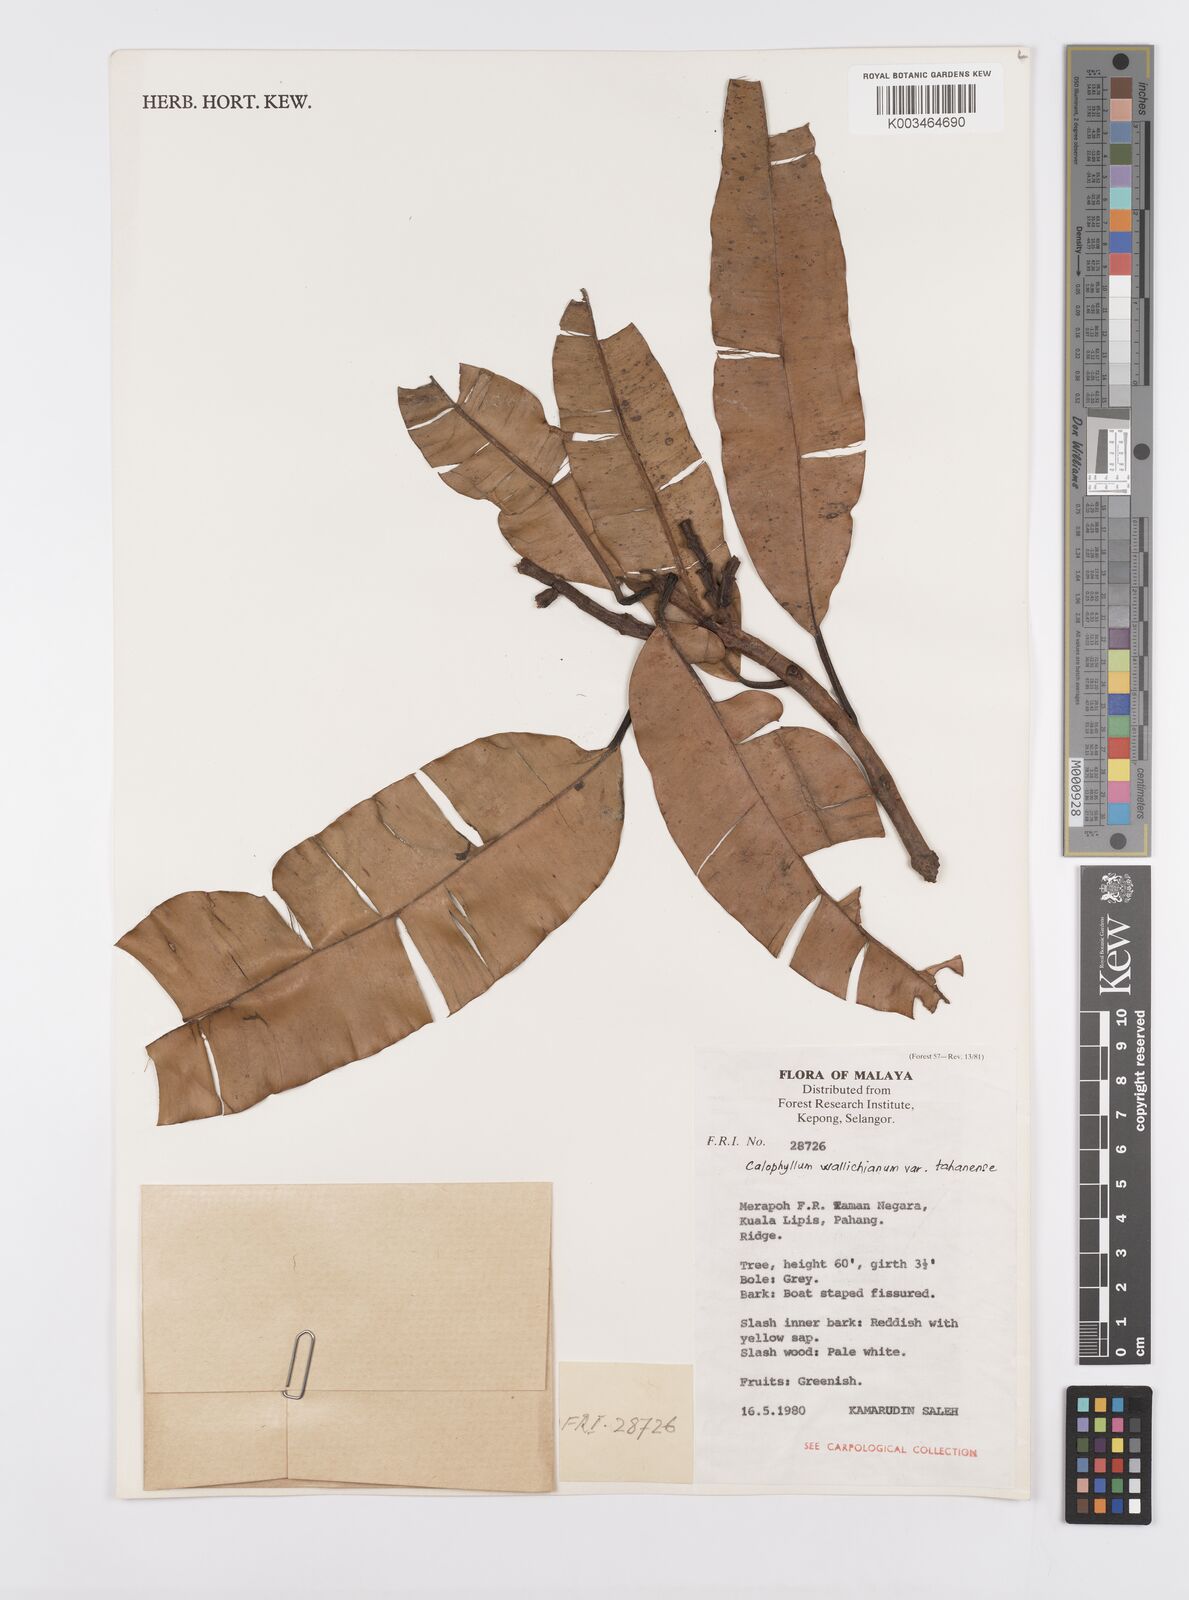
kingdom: Plantae
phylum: Tracheophyta
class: Magnoliopsida
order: Malpighiales
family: Calophyllaceae
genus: Calophyllum
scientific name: Calophyllum wallichiana
